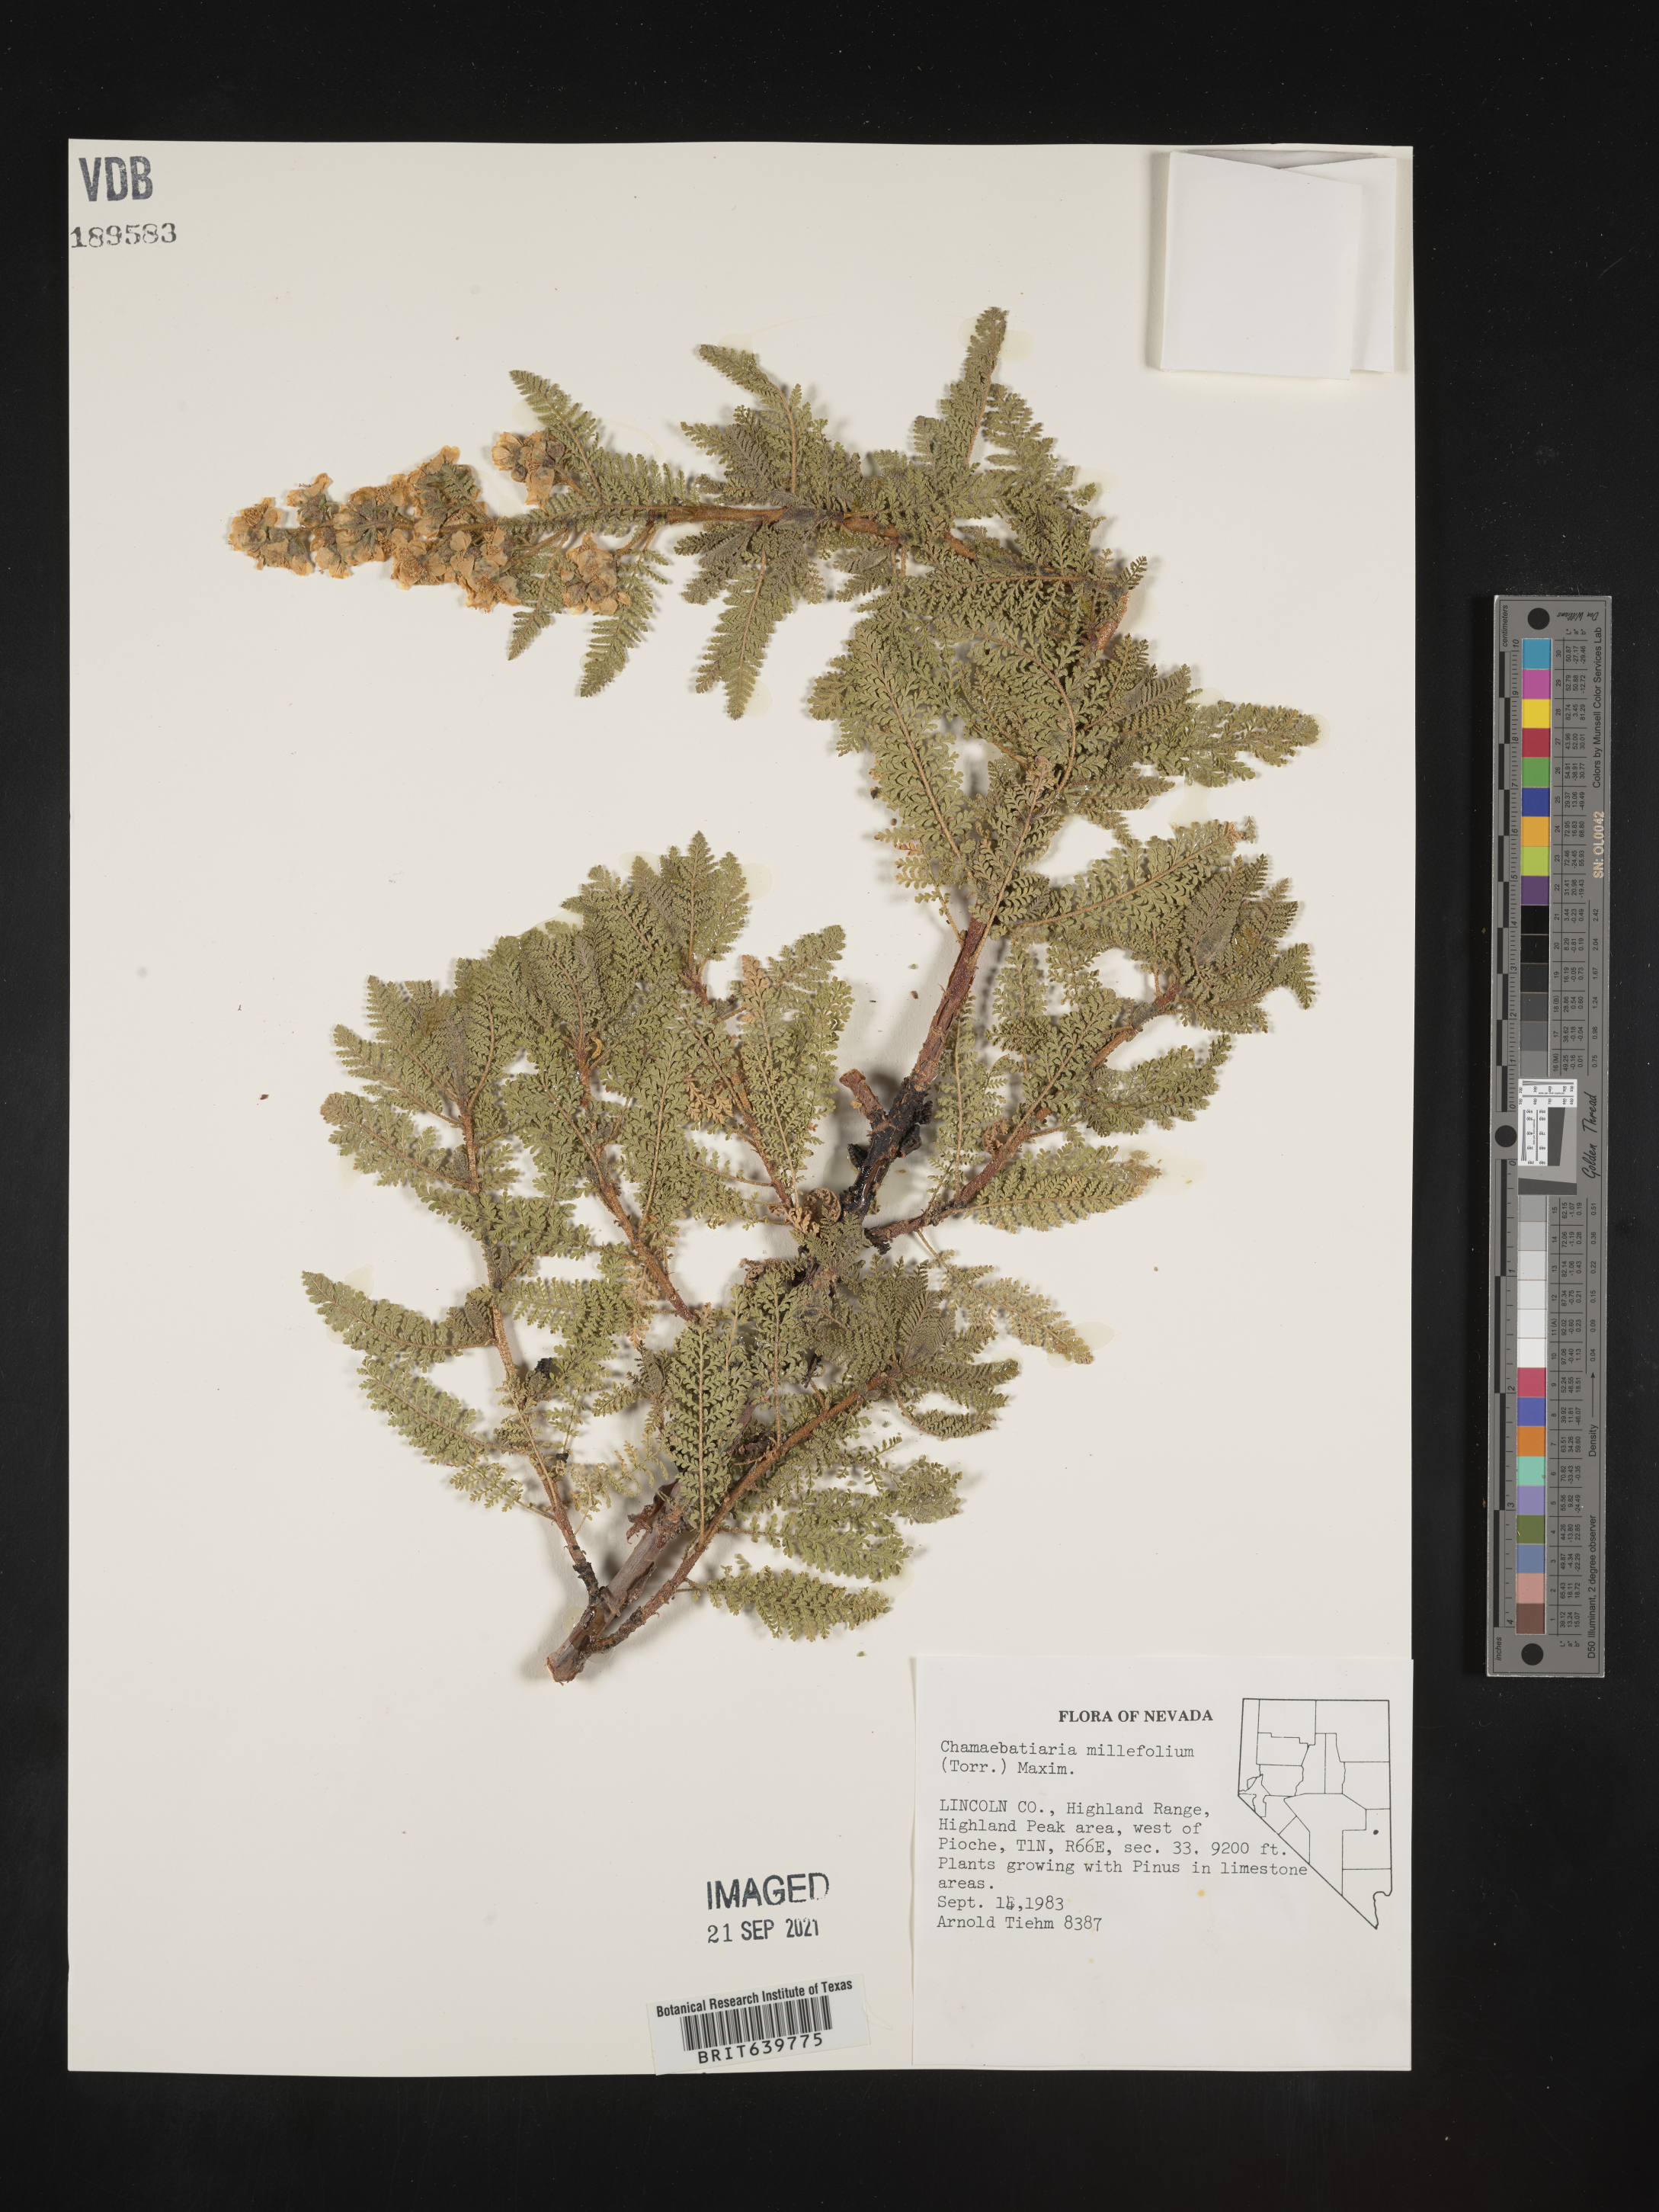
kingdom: Plantae
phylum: Tracheophyta
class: Magnoliopsida
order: Rosales
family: Rosaceae
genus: Chamaebatiaria
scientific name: Chamaebatiaria millefolium
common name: Fernbush
